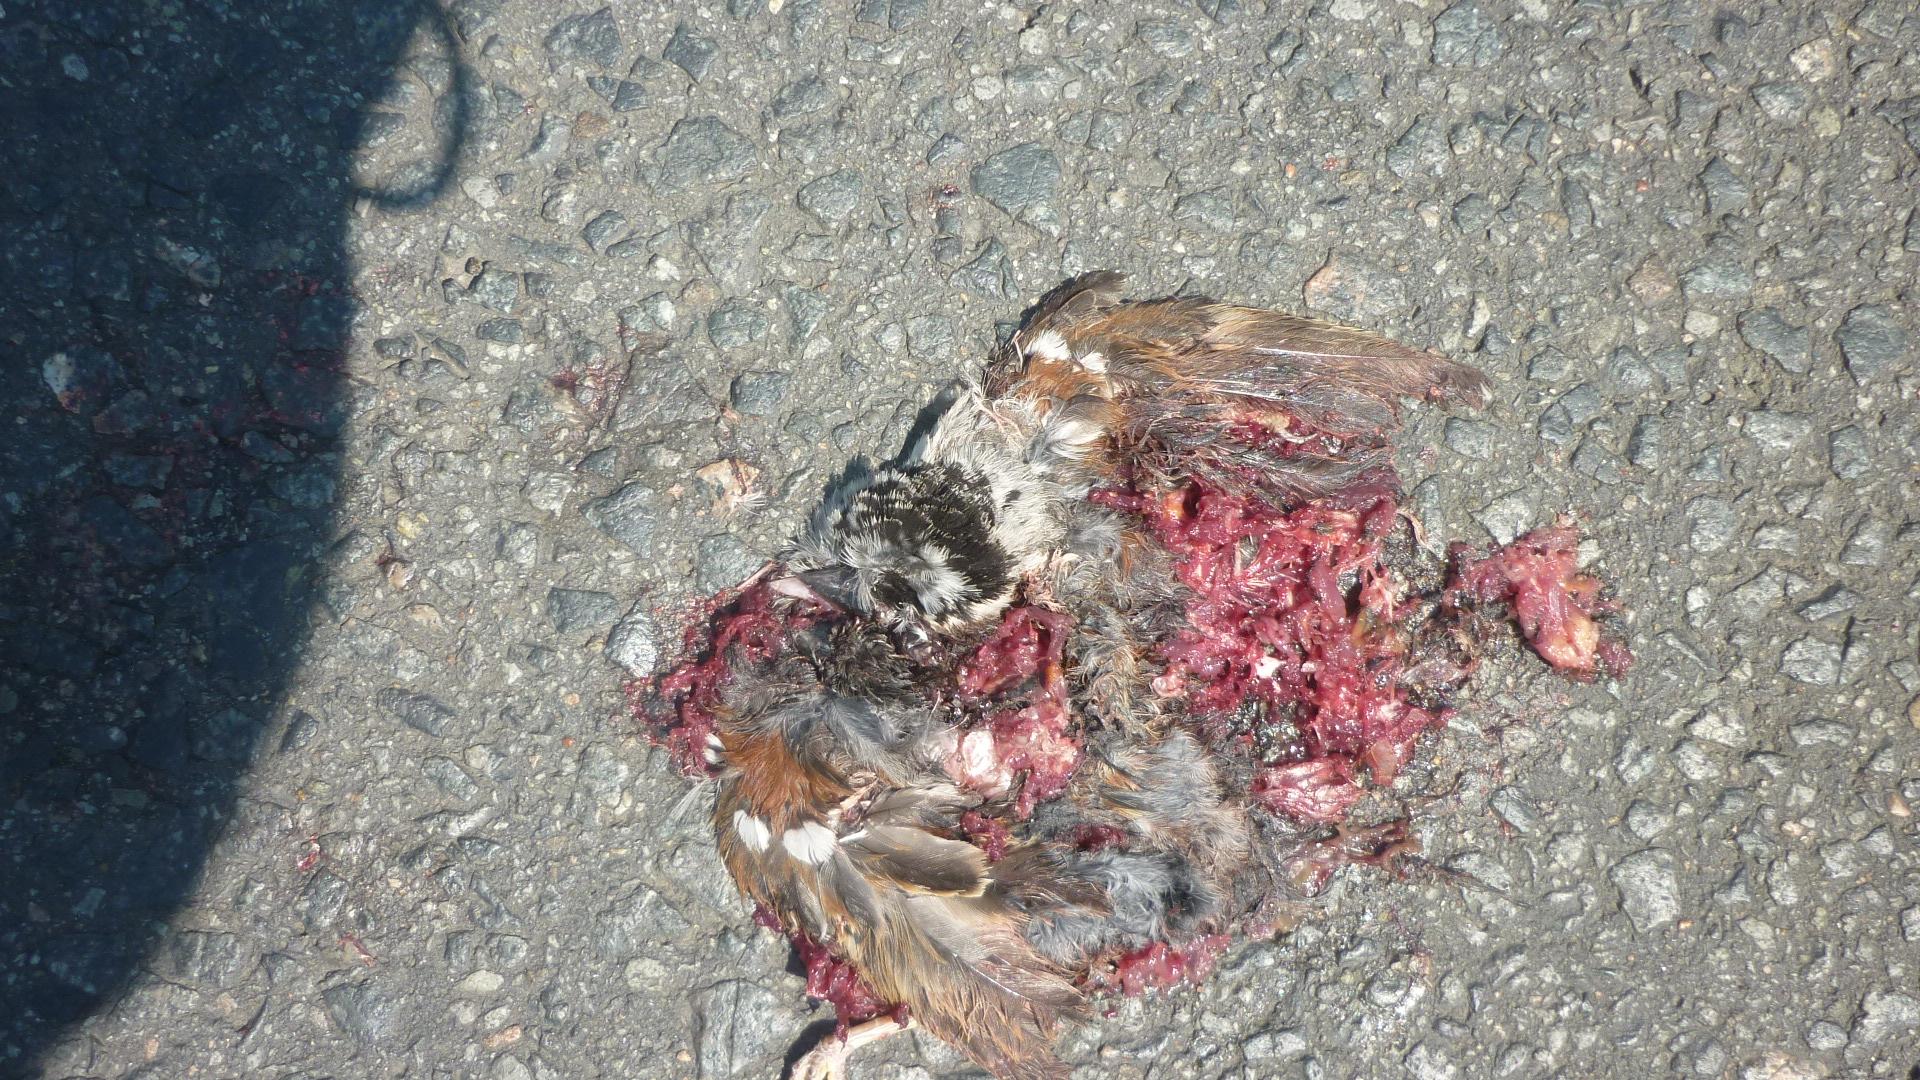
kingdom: Animalia
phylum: Chordata
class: Aves
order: Passeriformes
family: Passeridae
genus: Passer
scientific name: Passer domesticus
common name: House sparrow
